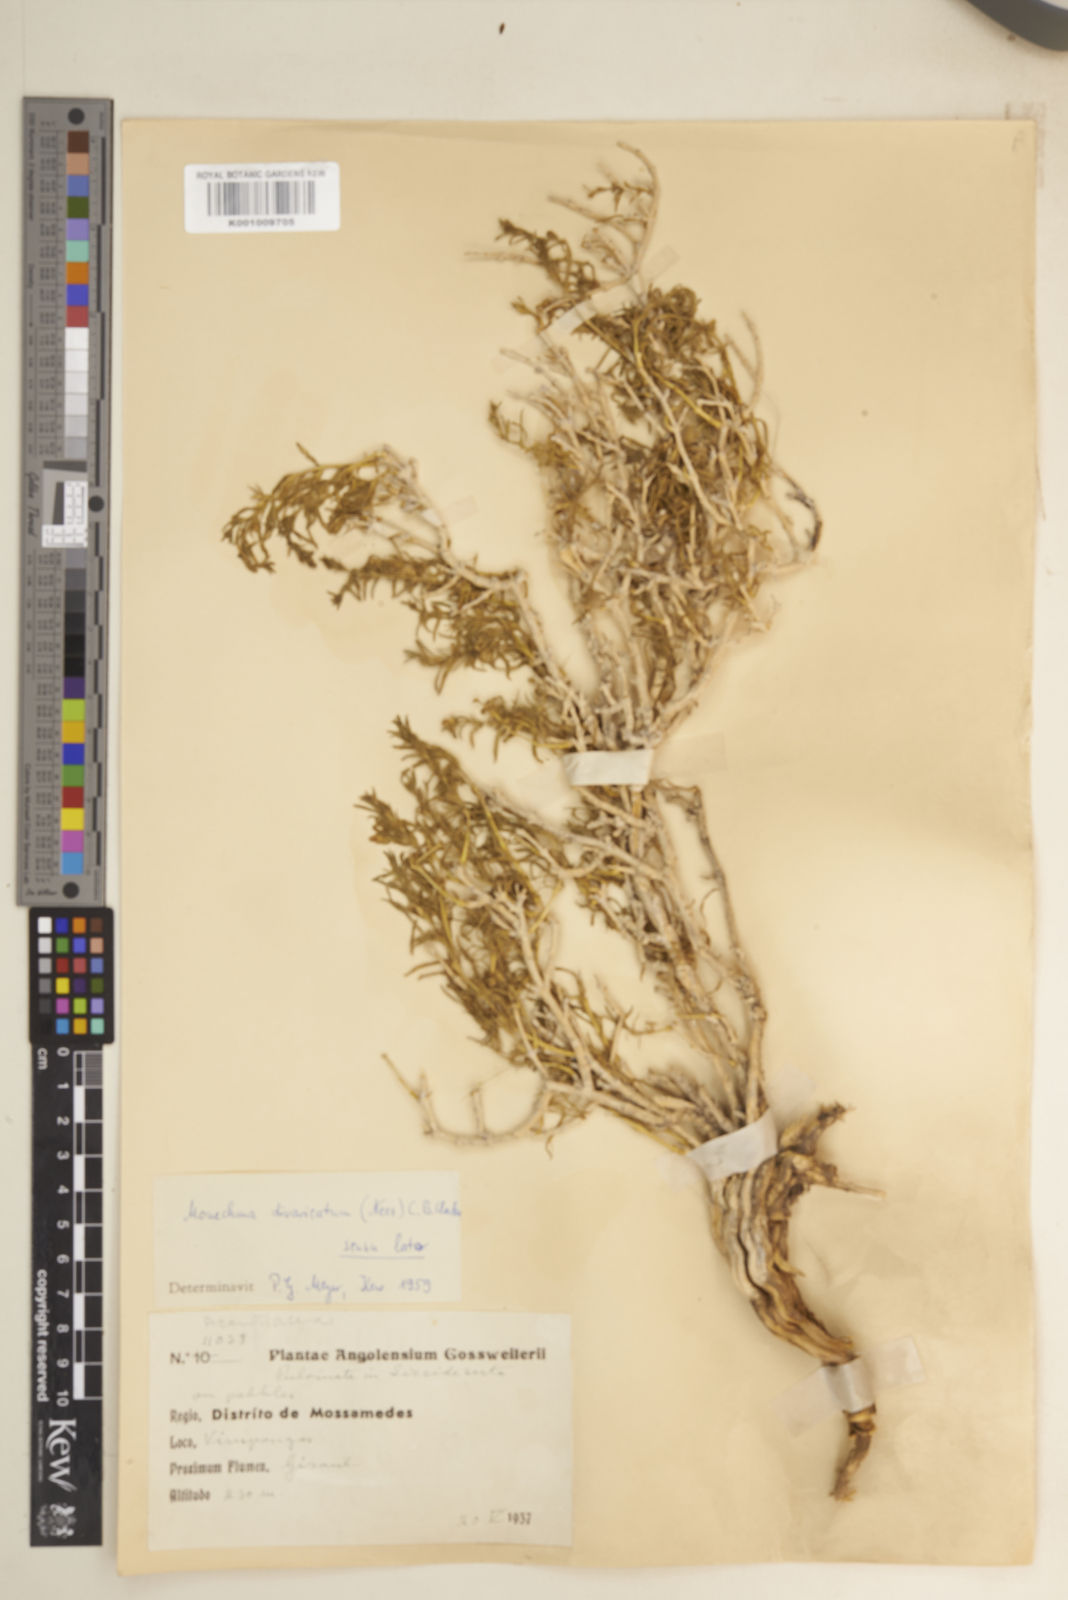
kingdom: Plantae
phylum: Tracheophyta
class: Magnoliopsida
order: Lamiales
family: Acanthaceae
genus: Pogonospermum
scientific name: Pogonospermum
